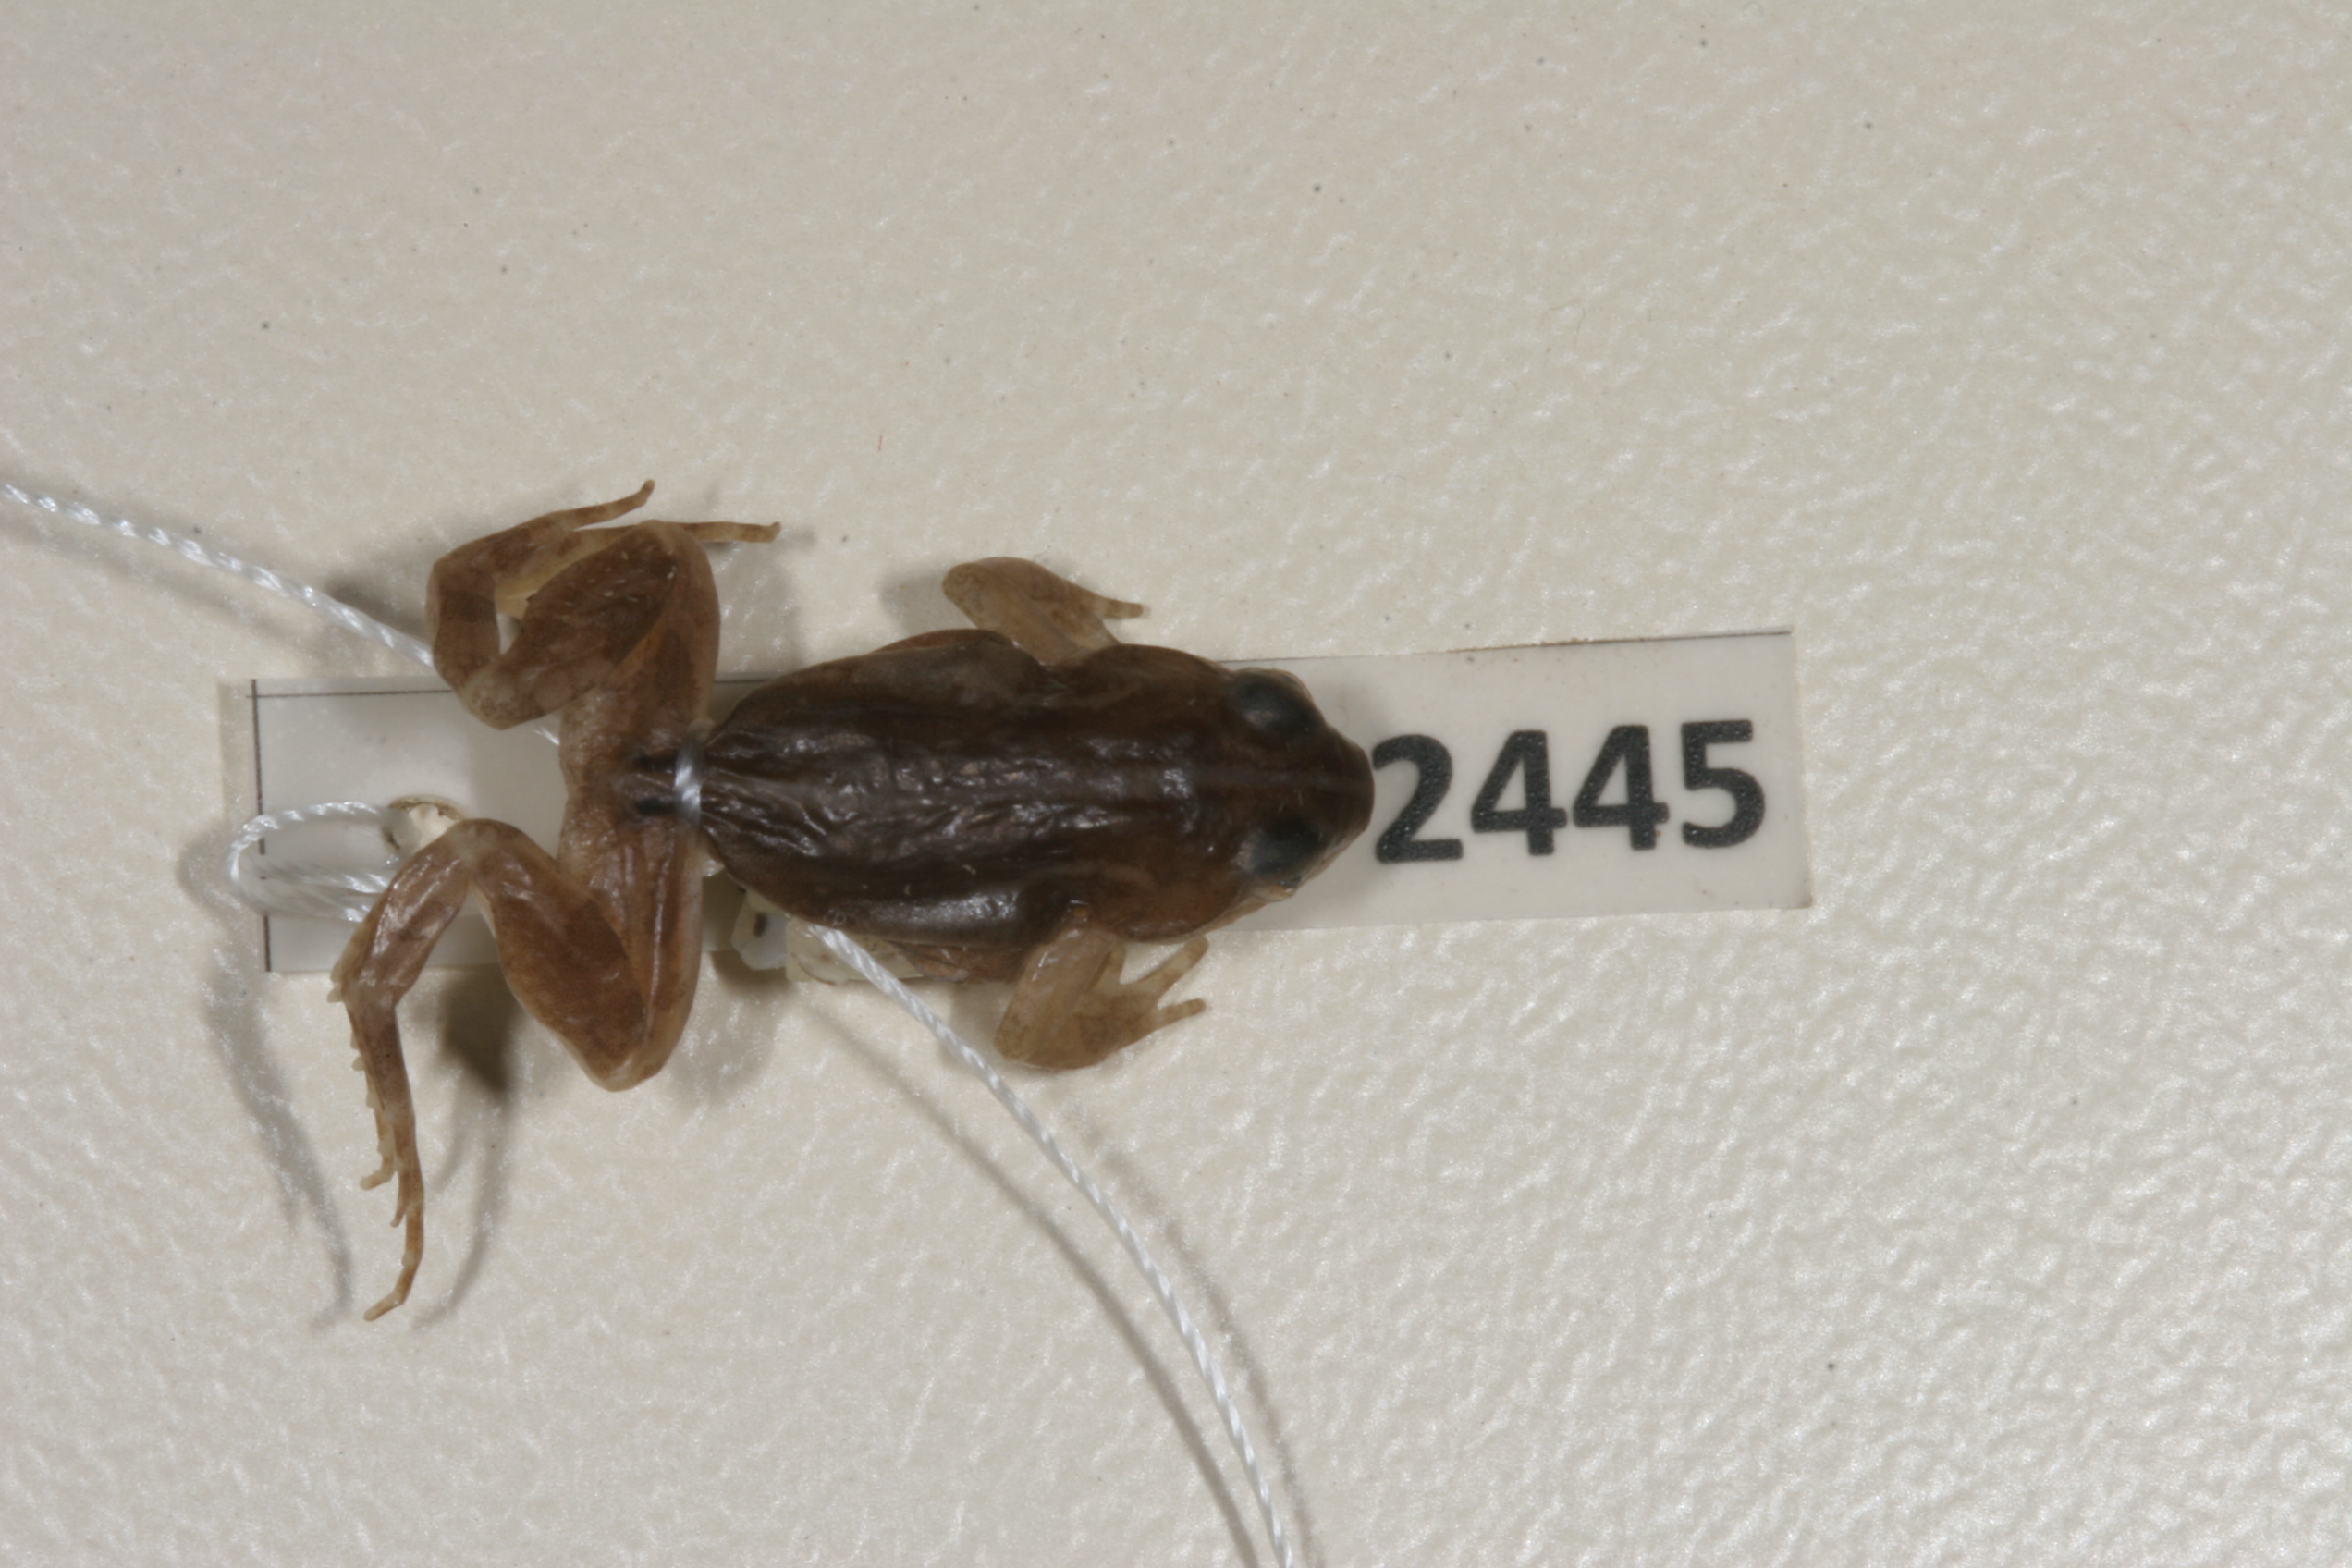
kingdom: Animalia
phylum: Chordata
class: Amphibia
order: Anura
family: Pyxicephalidae
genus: Cacosternum
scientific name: Cacosternum boettgeri
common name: Boettger's frog
